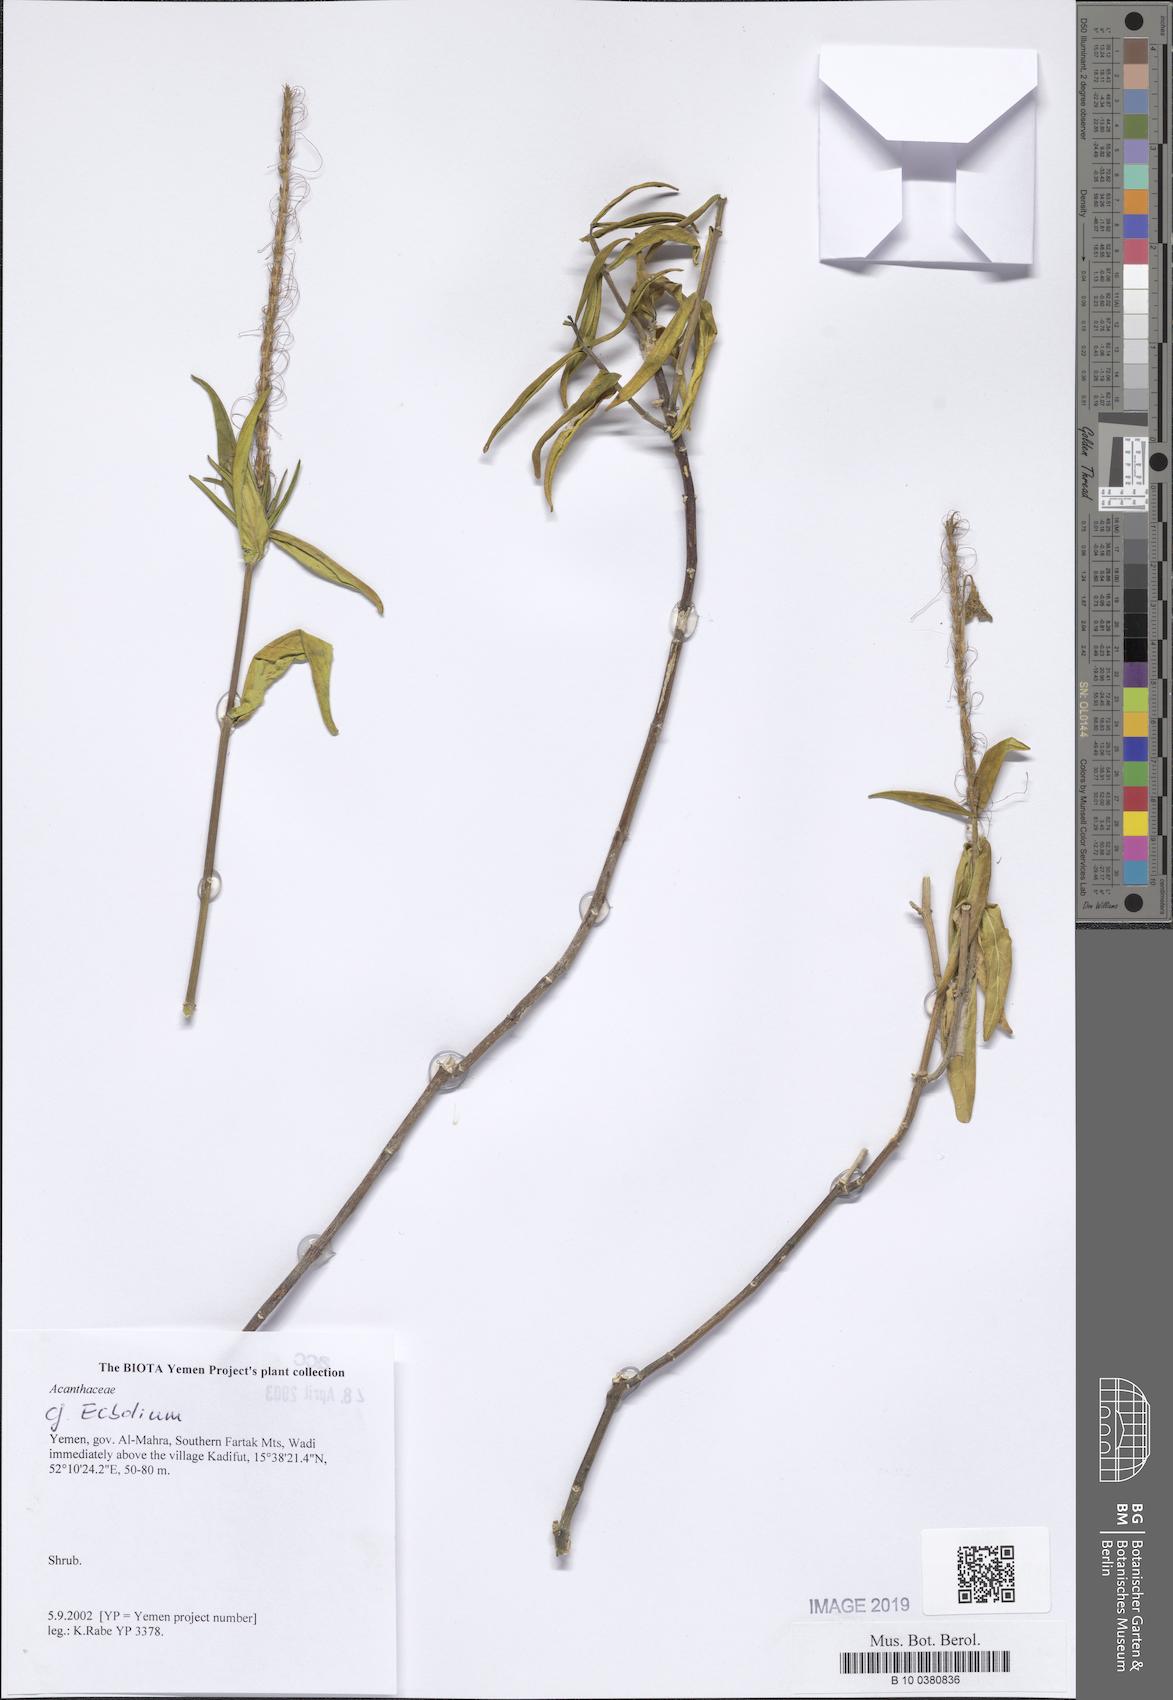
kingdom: Plantae
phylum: Tracheophyta
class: Magnoliopsida
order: Lamiales
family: Acanthaceae
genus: Ecbolium
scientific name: Ecbolium
